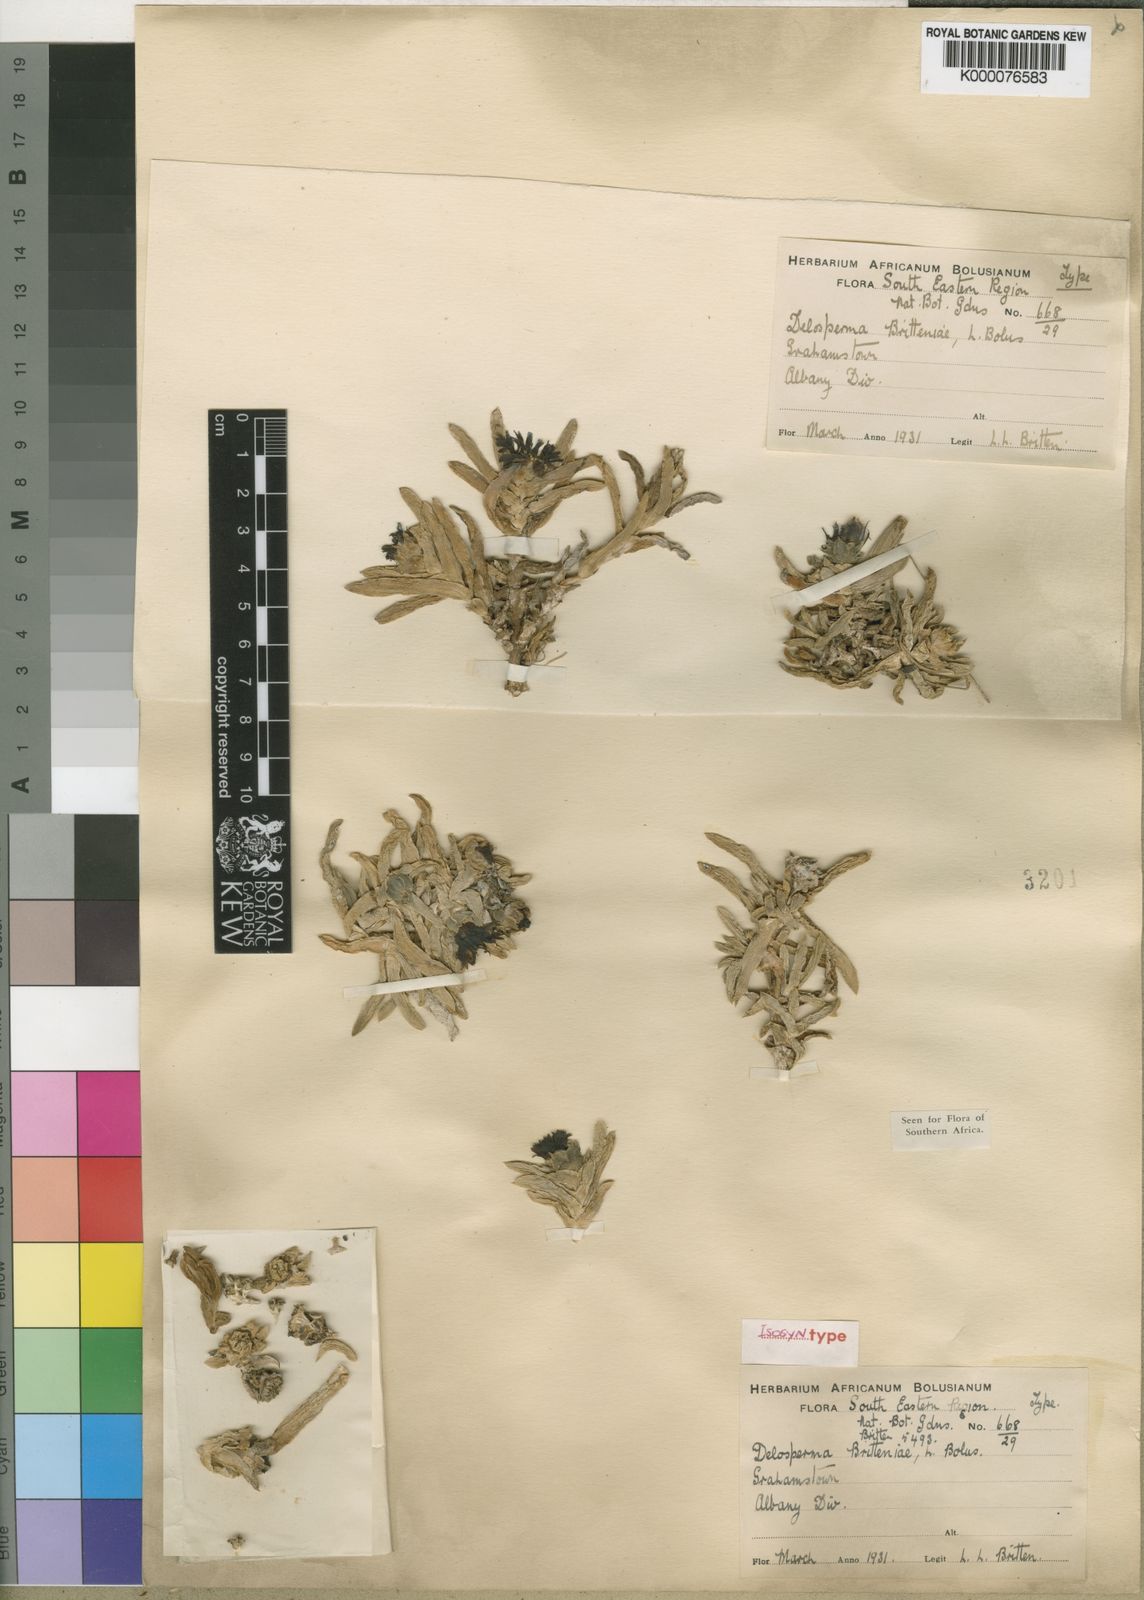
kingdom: Plantae
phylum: Tracheophyta
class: Magnoliopsida
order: Caryophyllales
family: Aizoaceae
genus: Corpuscularia
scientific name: Corpuscularia britteniae
